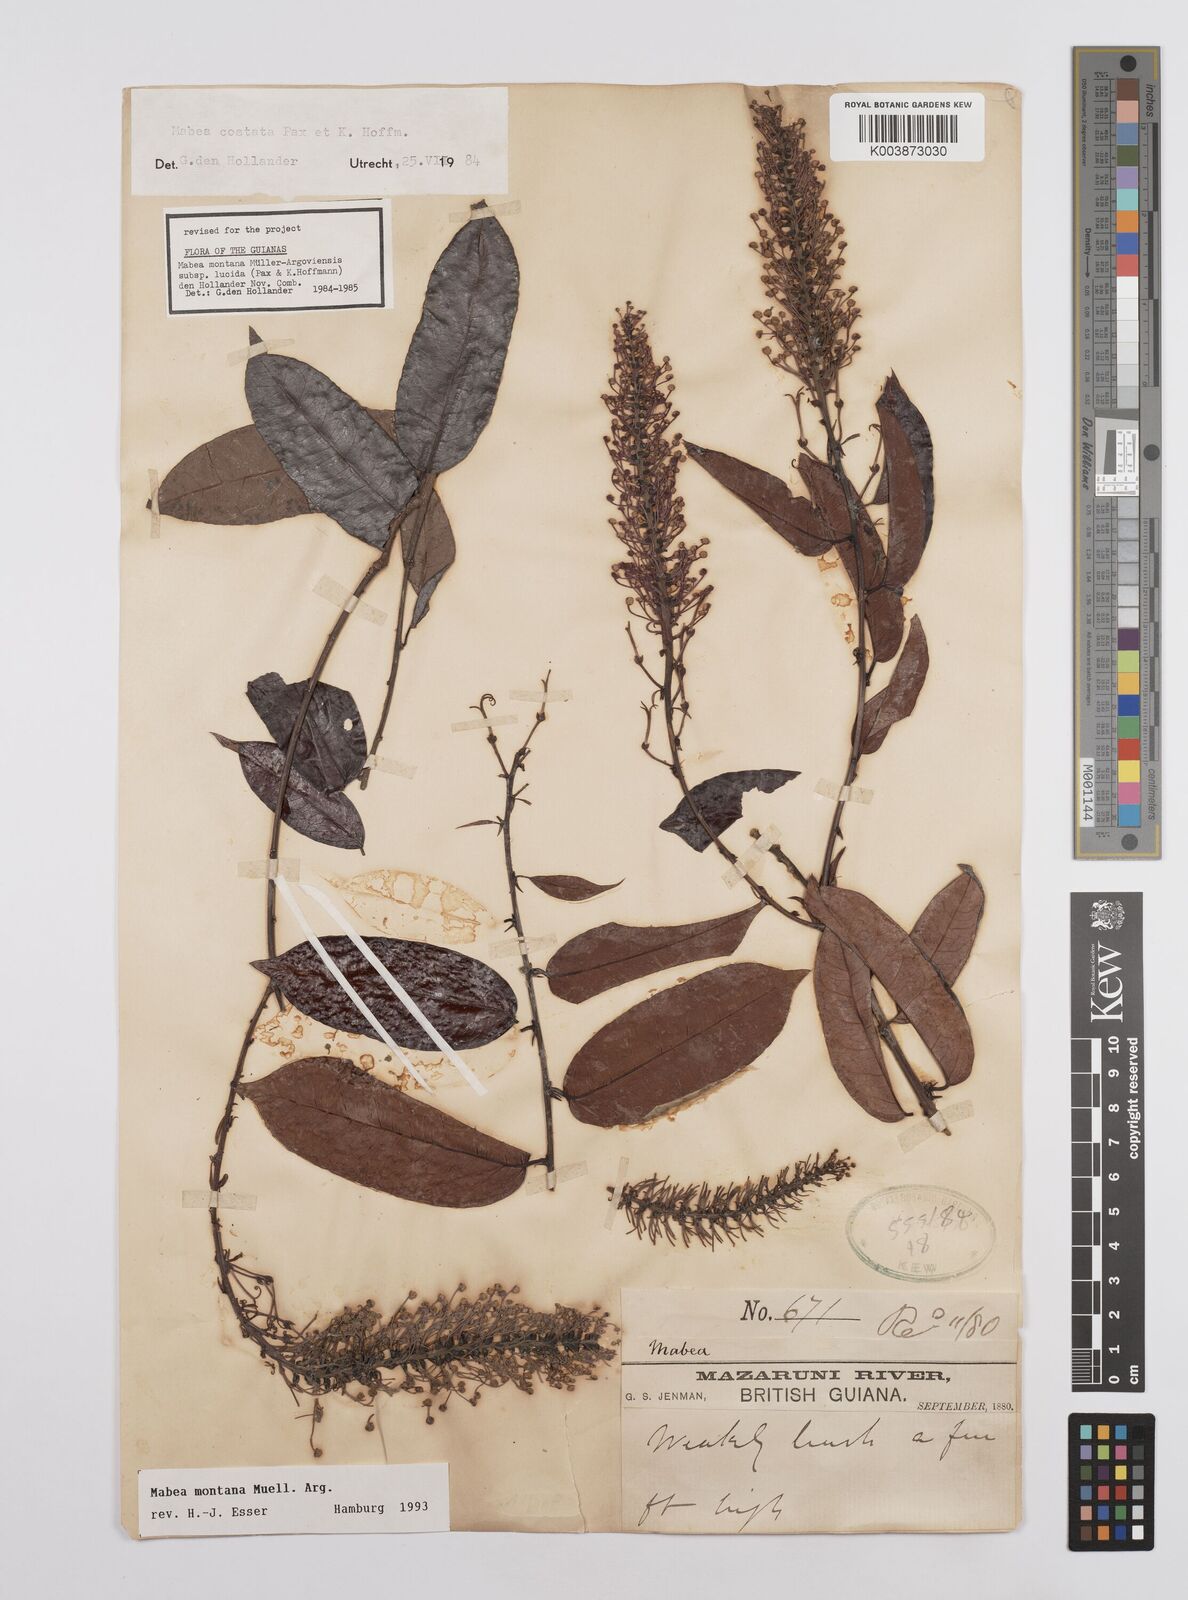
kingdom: Plantae
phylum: Tracheophyta
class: Magnoliopsida
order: Malpighiales
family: Euphorbiaceae
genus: Mabea
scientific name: Mabea montana
